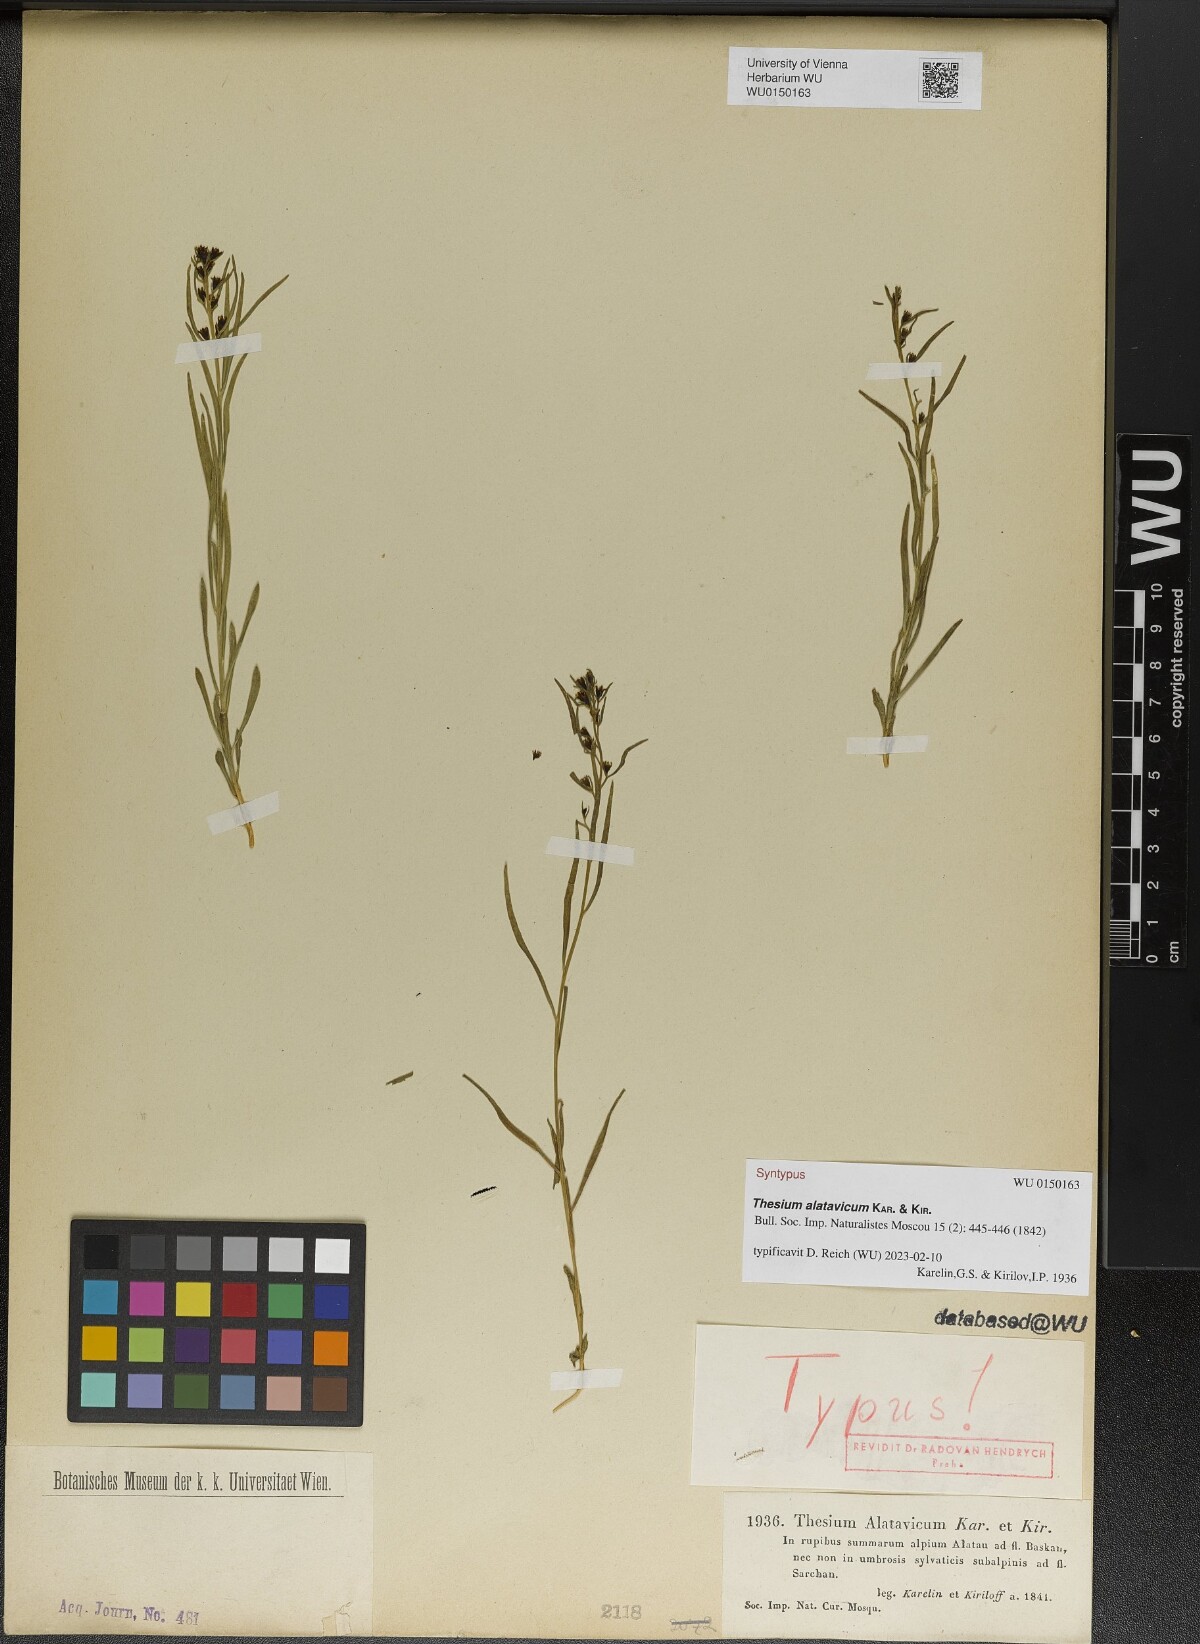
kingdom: Plantae
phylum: Tracheophyta
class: Magnoliopsida
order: Santalales
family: Thesiaceae
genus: Thesium
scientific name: Thesium alatavicum
